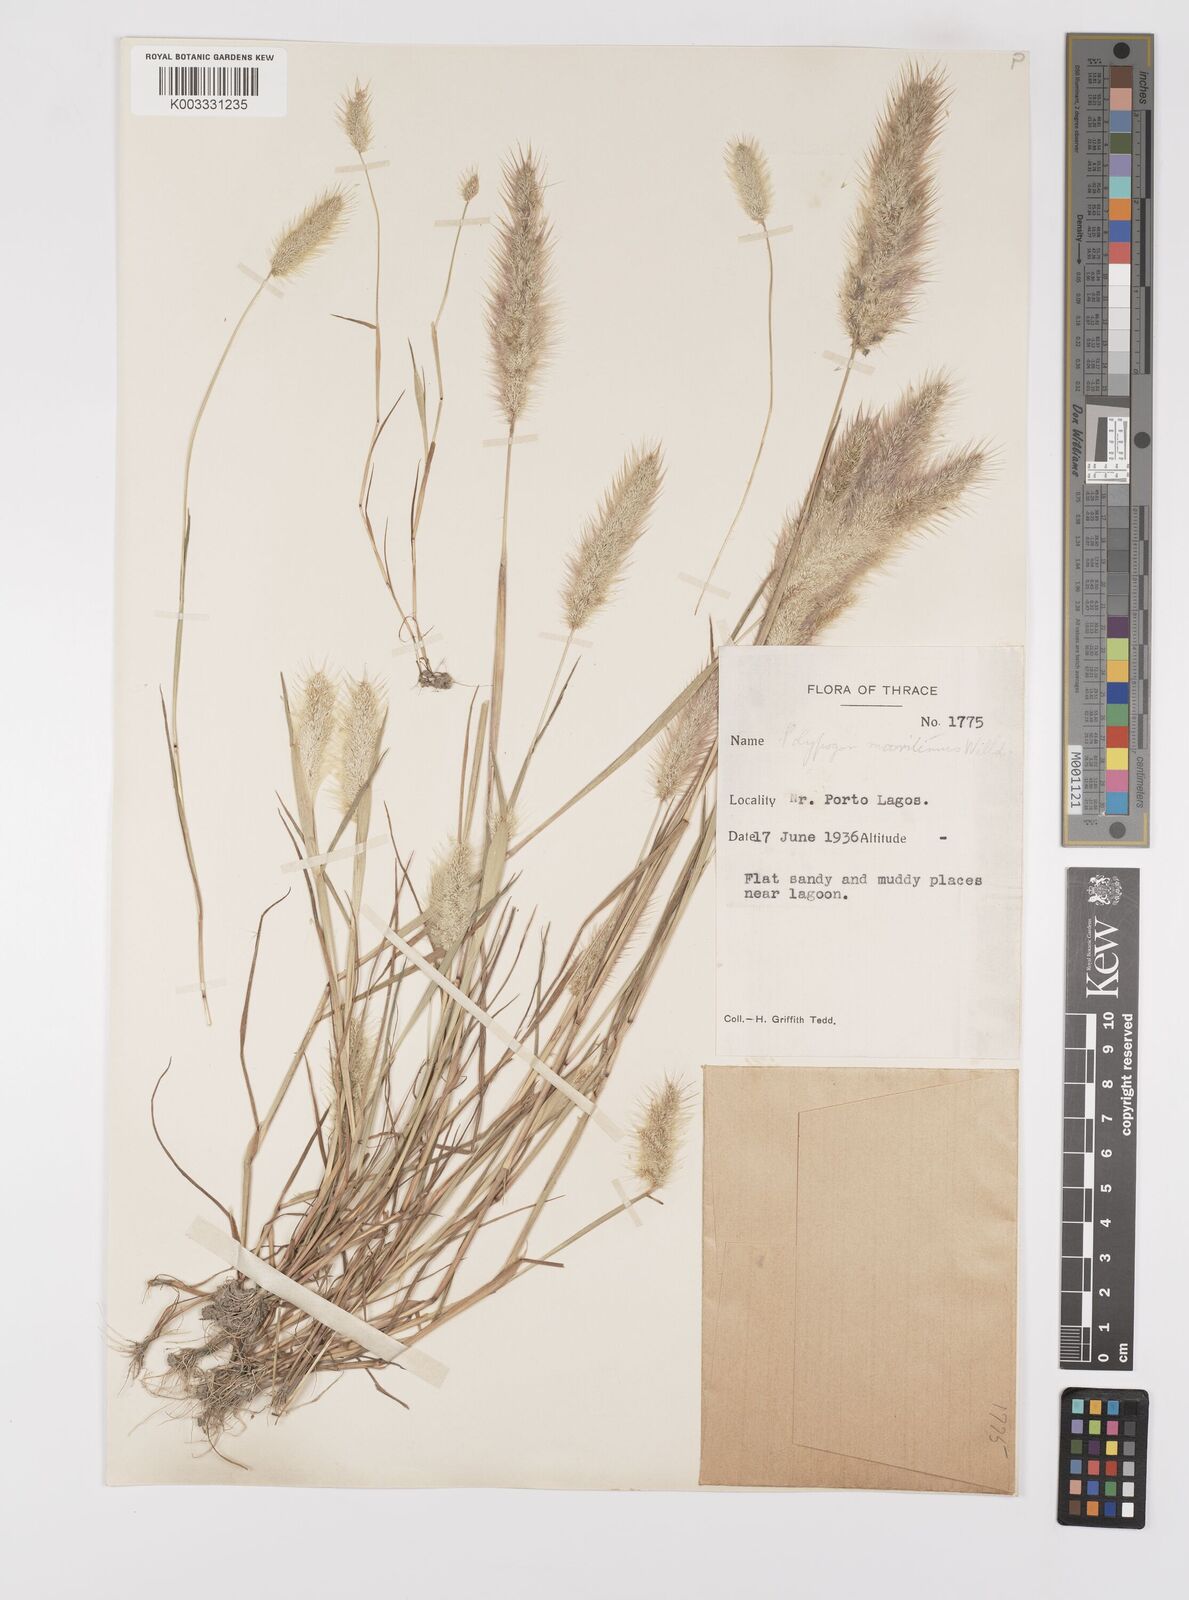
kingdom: Plantae
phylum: Tracheophyta
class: Liliopsida
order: Poales
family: Poaceae
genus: Polypogon
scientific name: Polypogon maritimus
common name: Mediterranean rabbitsfoot grass
